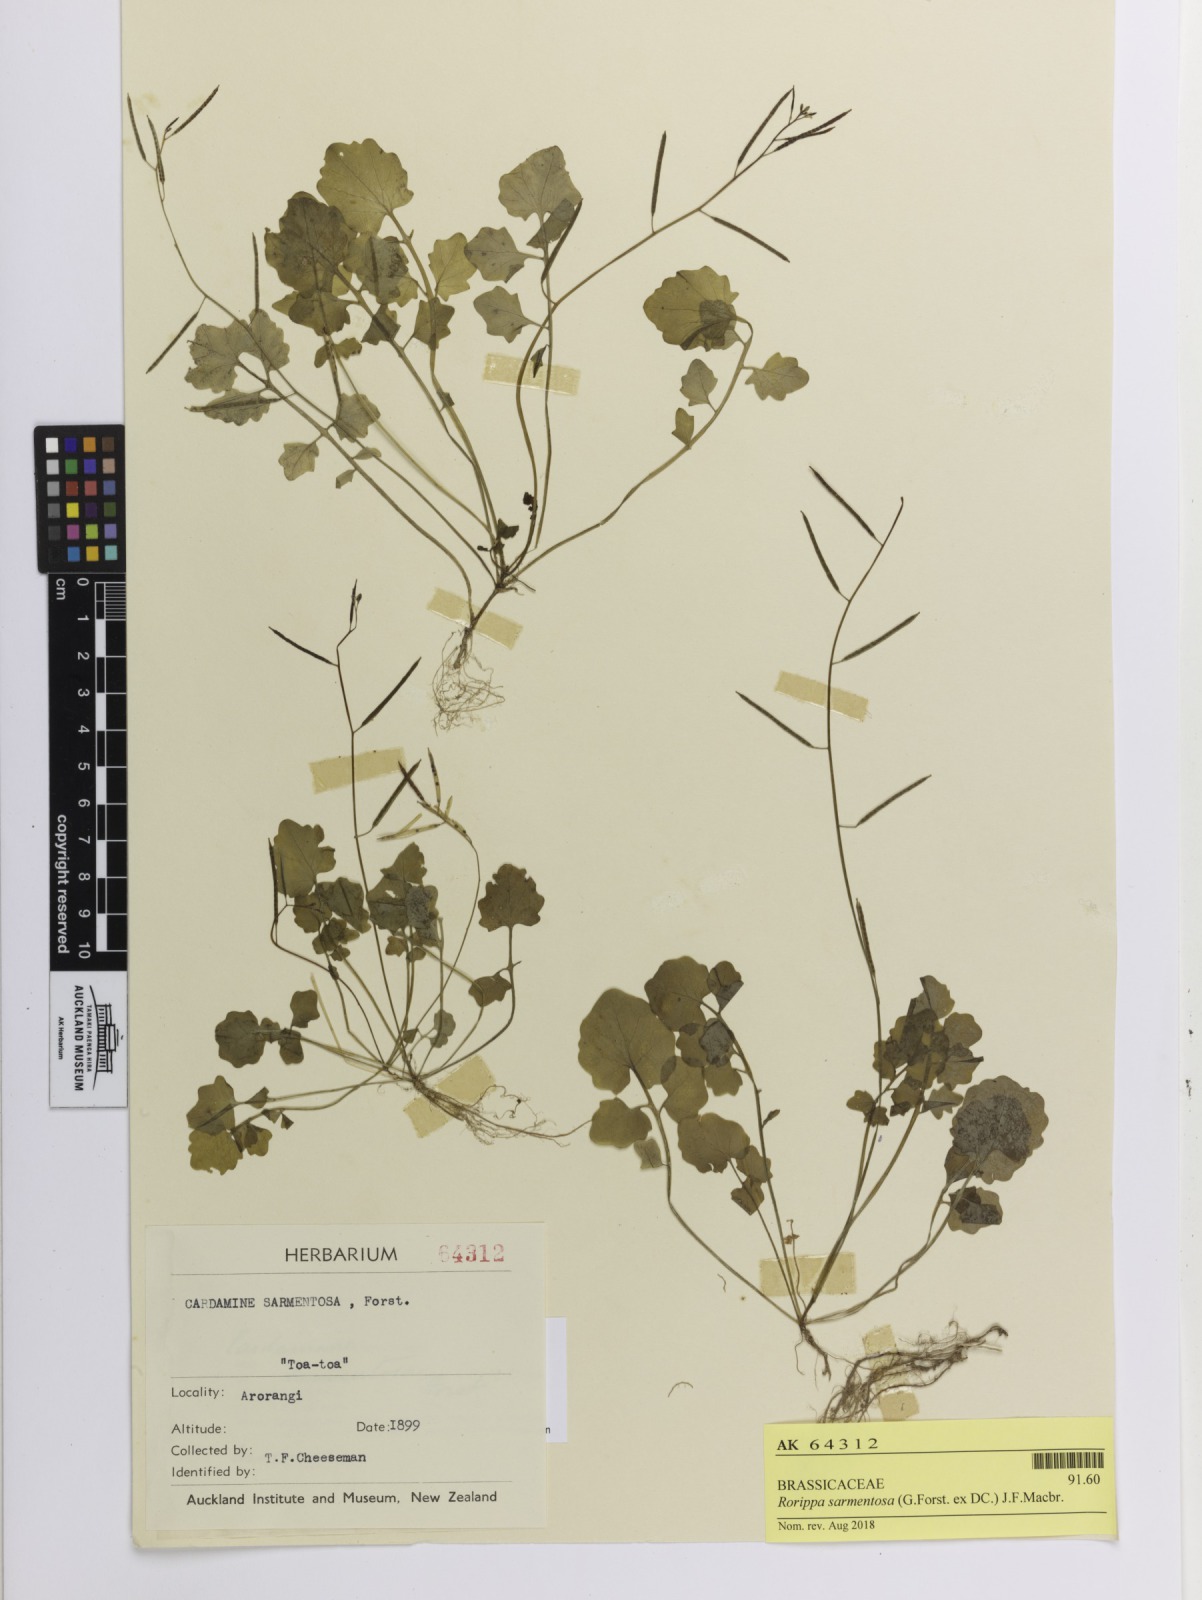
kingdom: Plantae
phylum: Tracheophyta
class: Magnoliopsida
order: Brassicales
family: Brassicaceae
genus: Rorippa
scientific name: Rorippa sarmentosa
